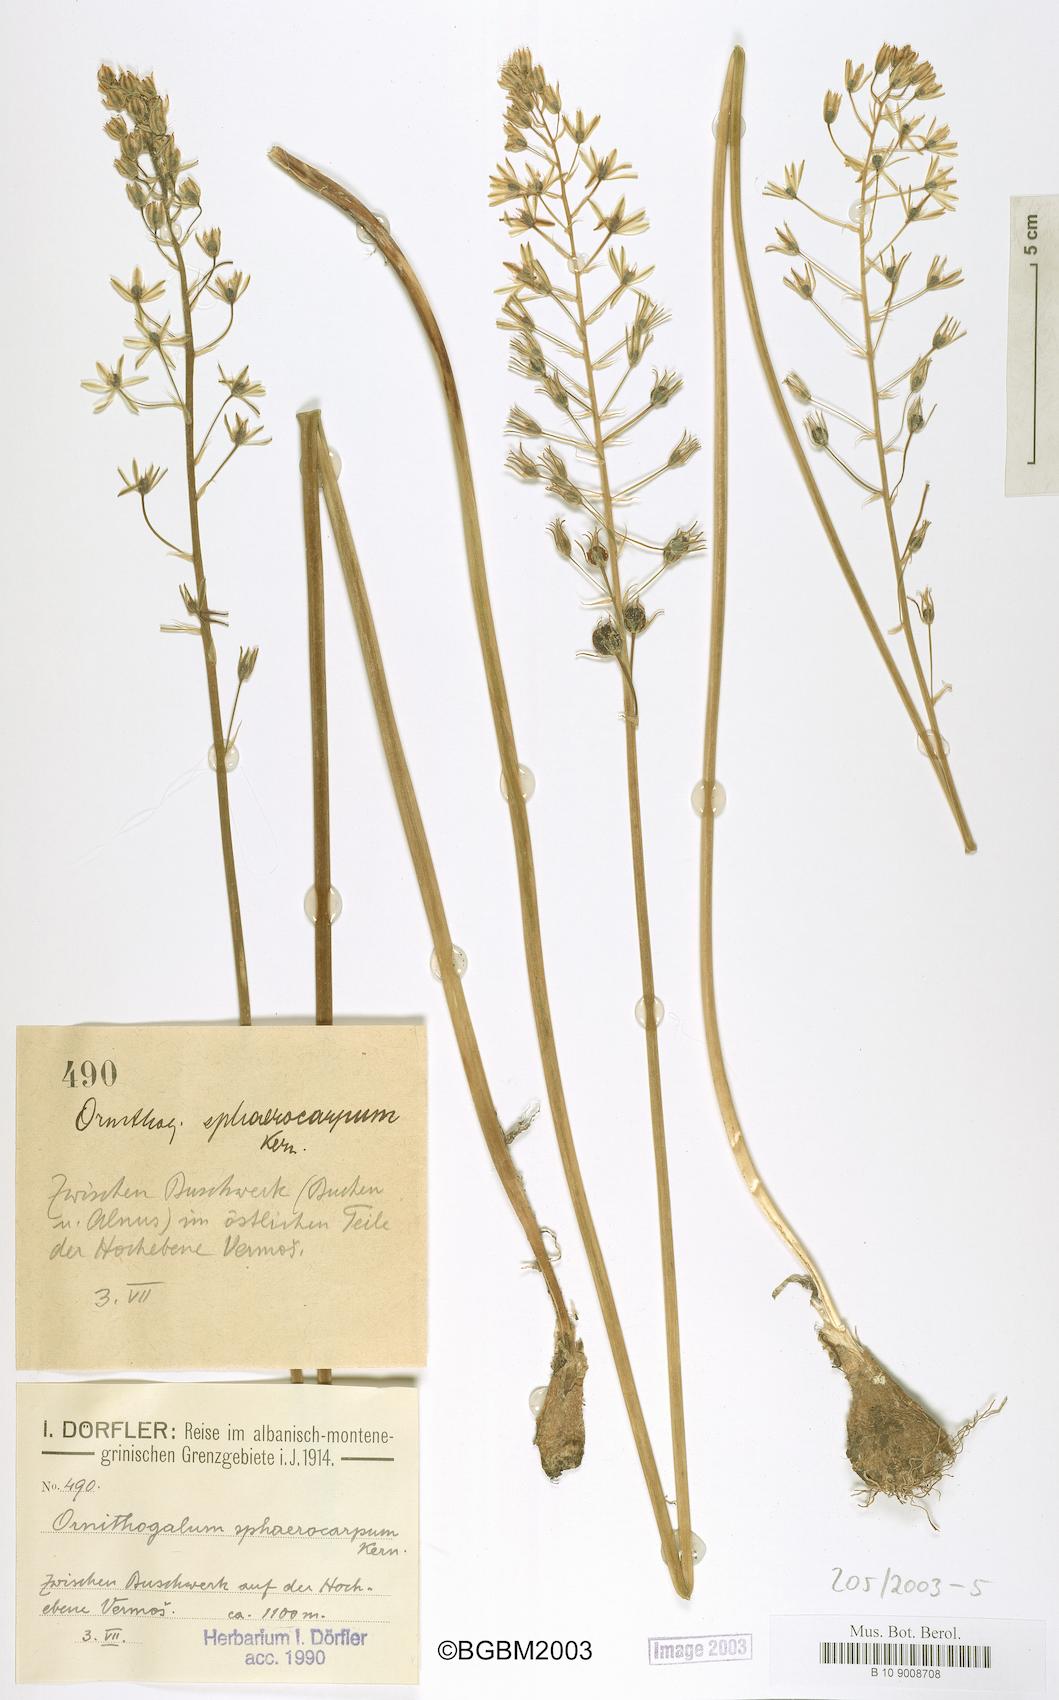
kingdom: Plantae
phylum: Tracheophyta
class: Liliopsida
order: Asparagales
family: Asparagaceae
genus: Ornithogalum
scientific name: Ornithogalum sphaerocarpum
